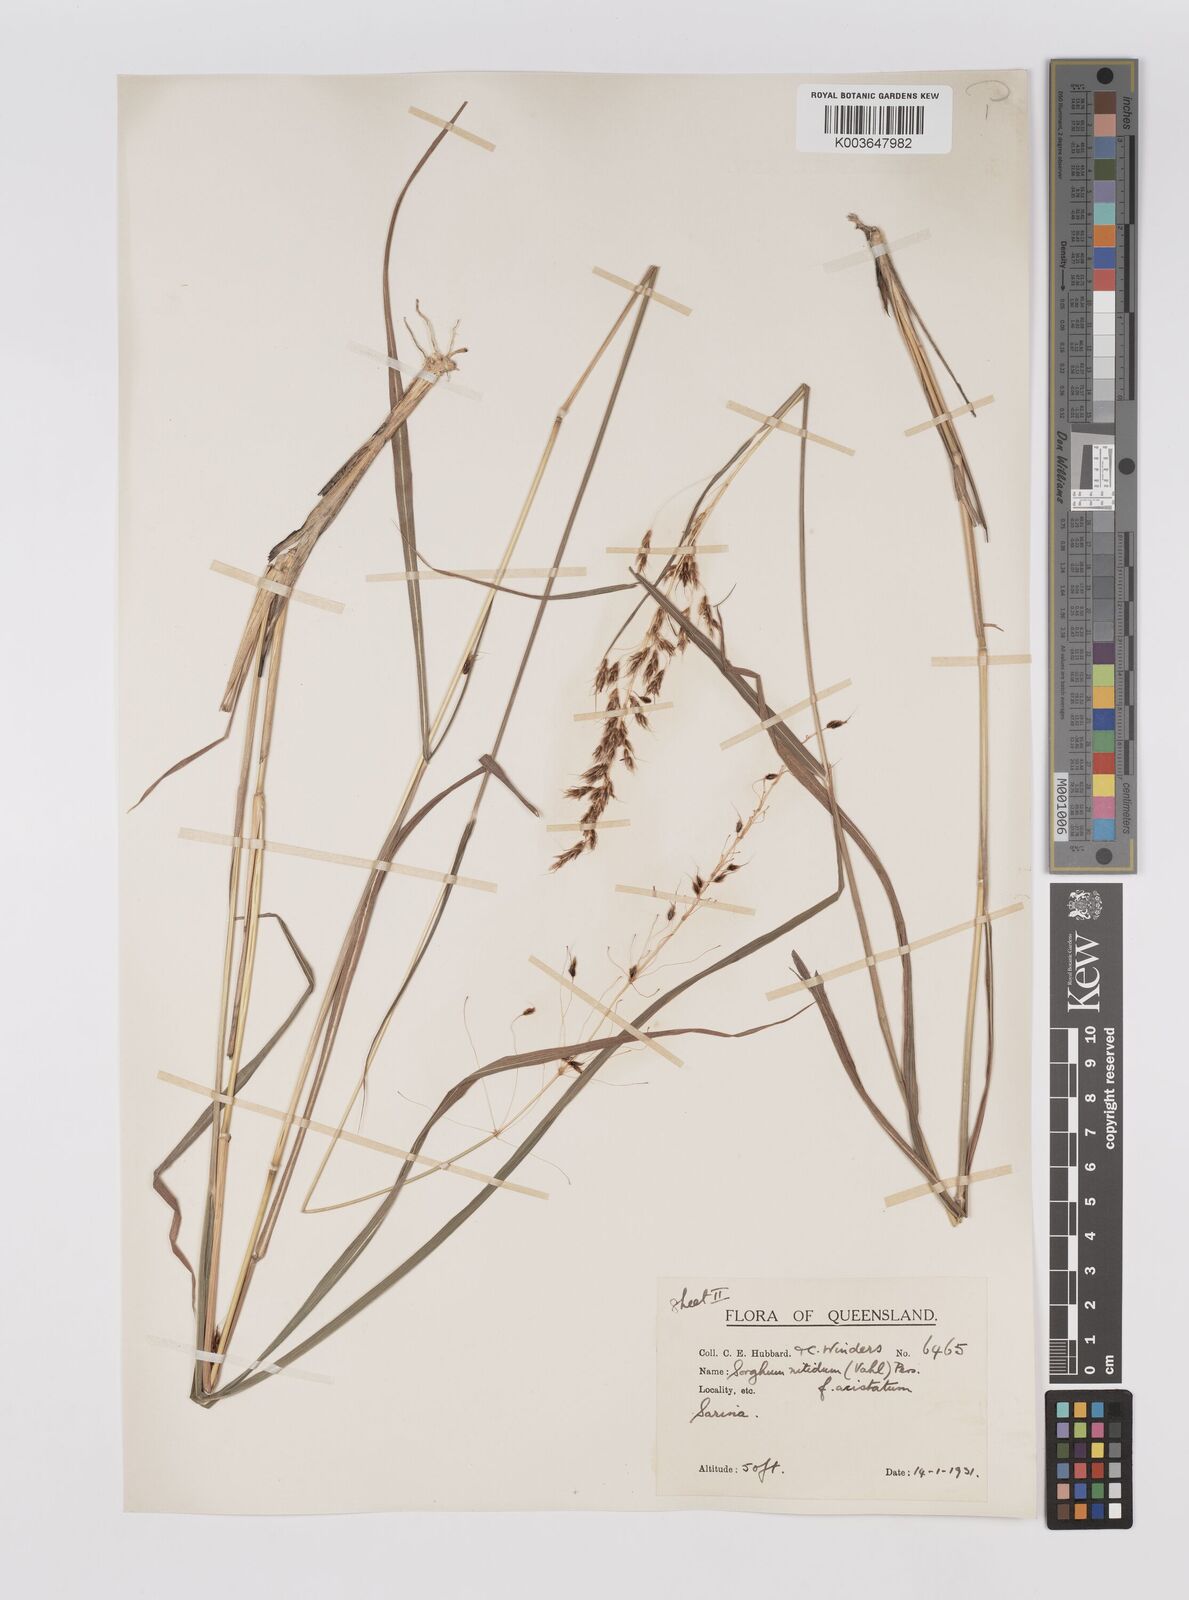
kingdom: Plantae
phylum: Tracheophyta
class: Liliopsida
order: Poales
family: Poaceae
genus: Sorghum
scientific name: Sorghum nitidum
